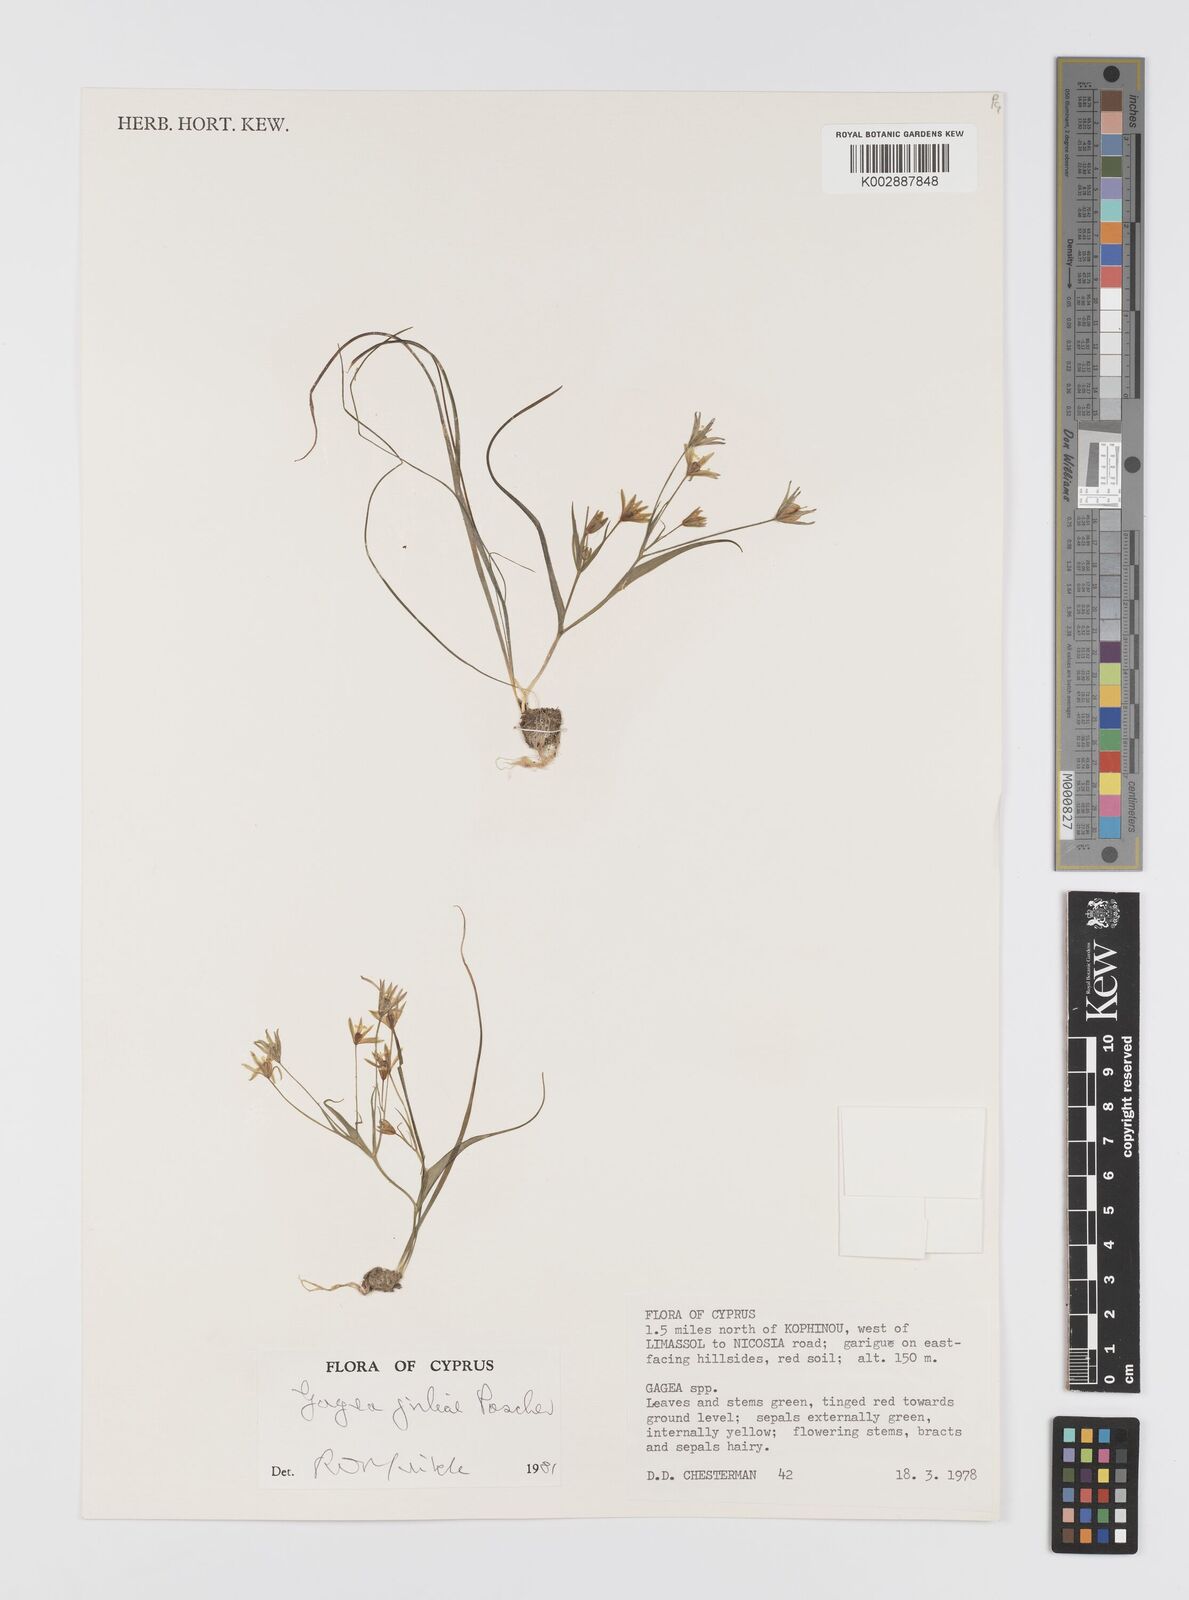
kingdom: Plantae
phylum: Tracheophyta
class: Liliopsida
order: Liliales
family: Liliaceae
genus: Gagea
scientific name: Gagea juliae
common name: Julia’s gagea
